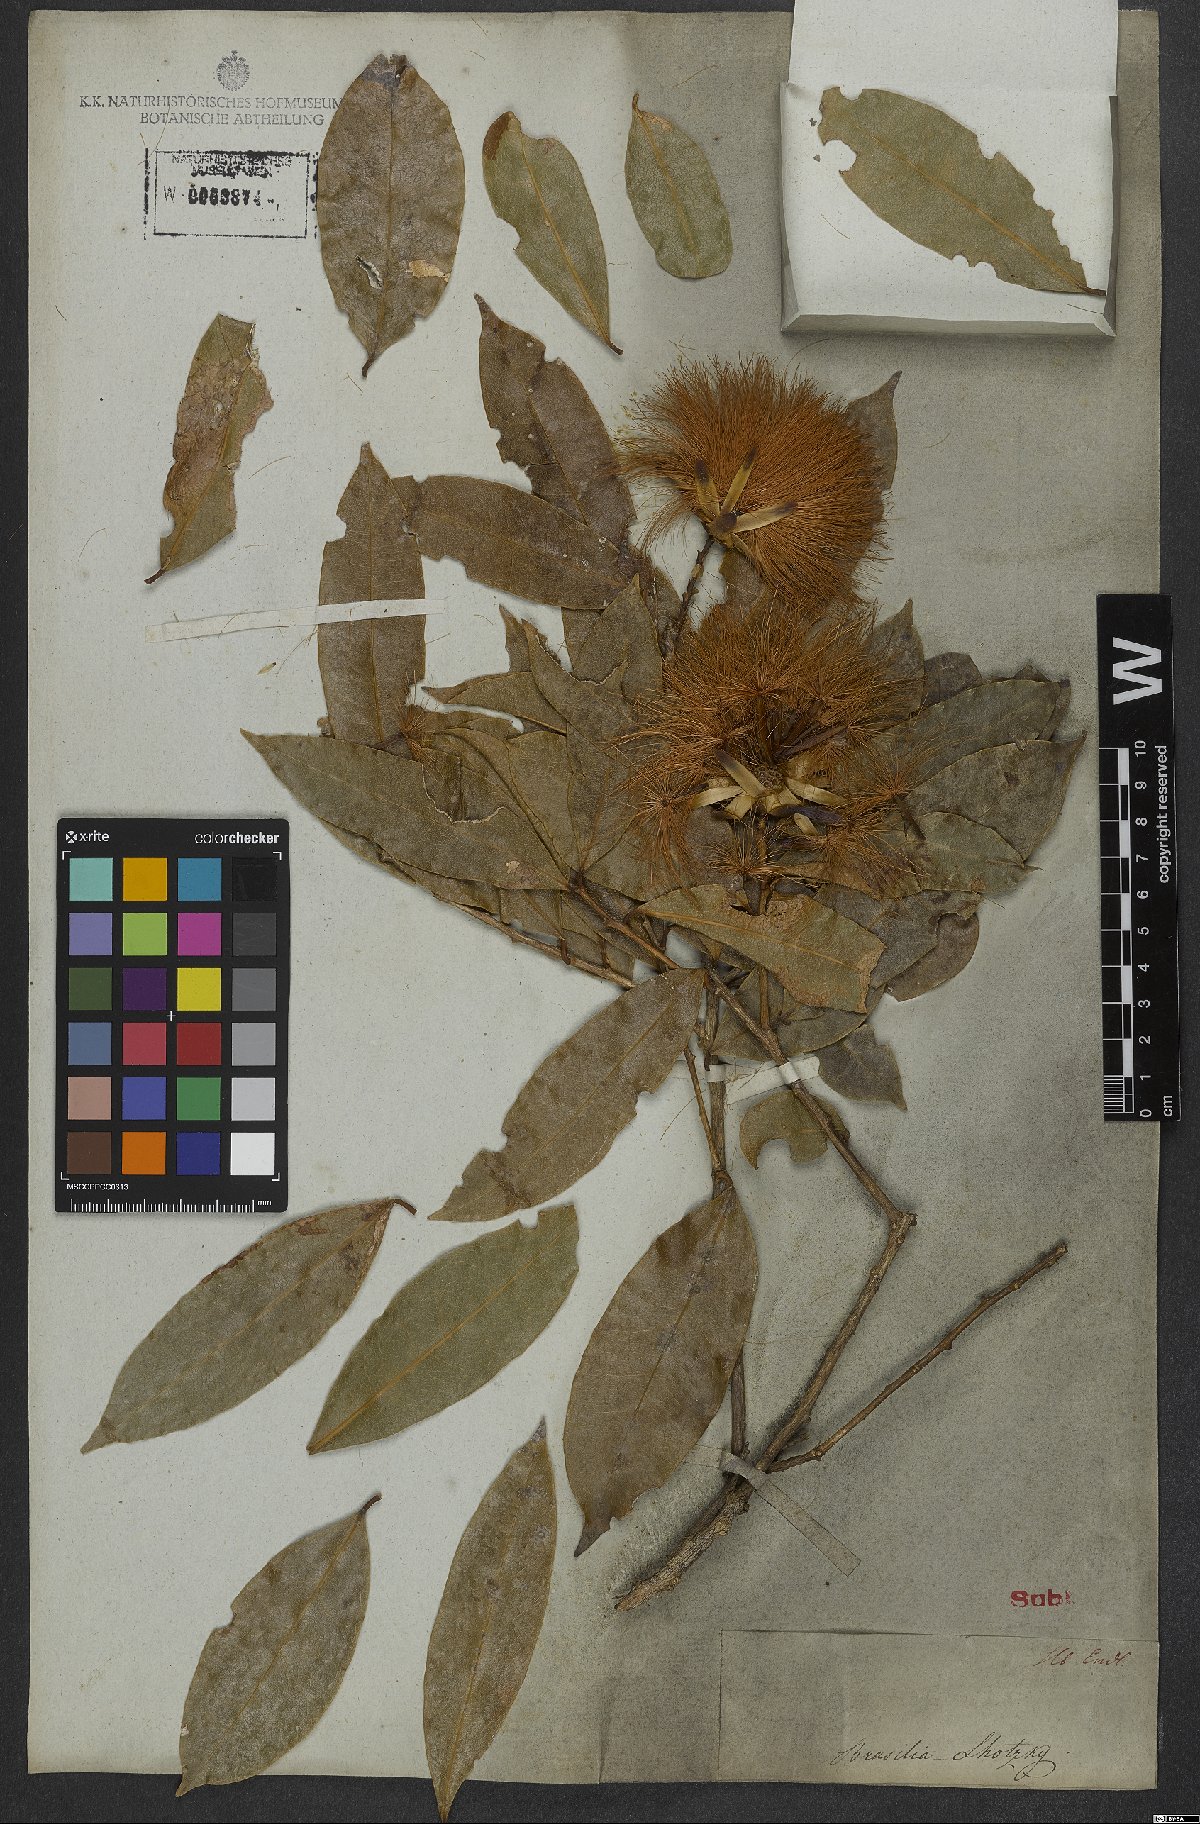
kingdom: Plantae
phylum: Tracheophyta
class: Magnoliopsida
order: Asterales
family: Asteraceae
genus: Stifftia
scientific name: Stifftia chrysantha
